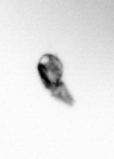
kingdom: Animalia
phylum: Arthropoda
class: Copepoda
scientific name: Copepoda
